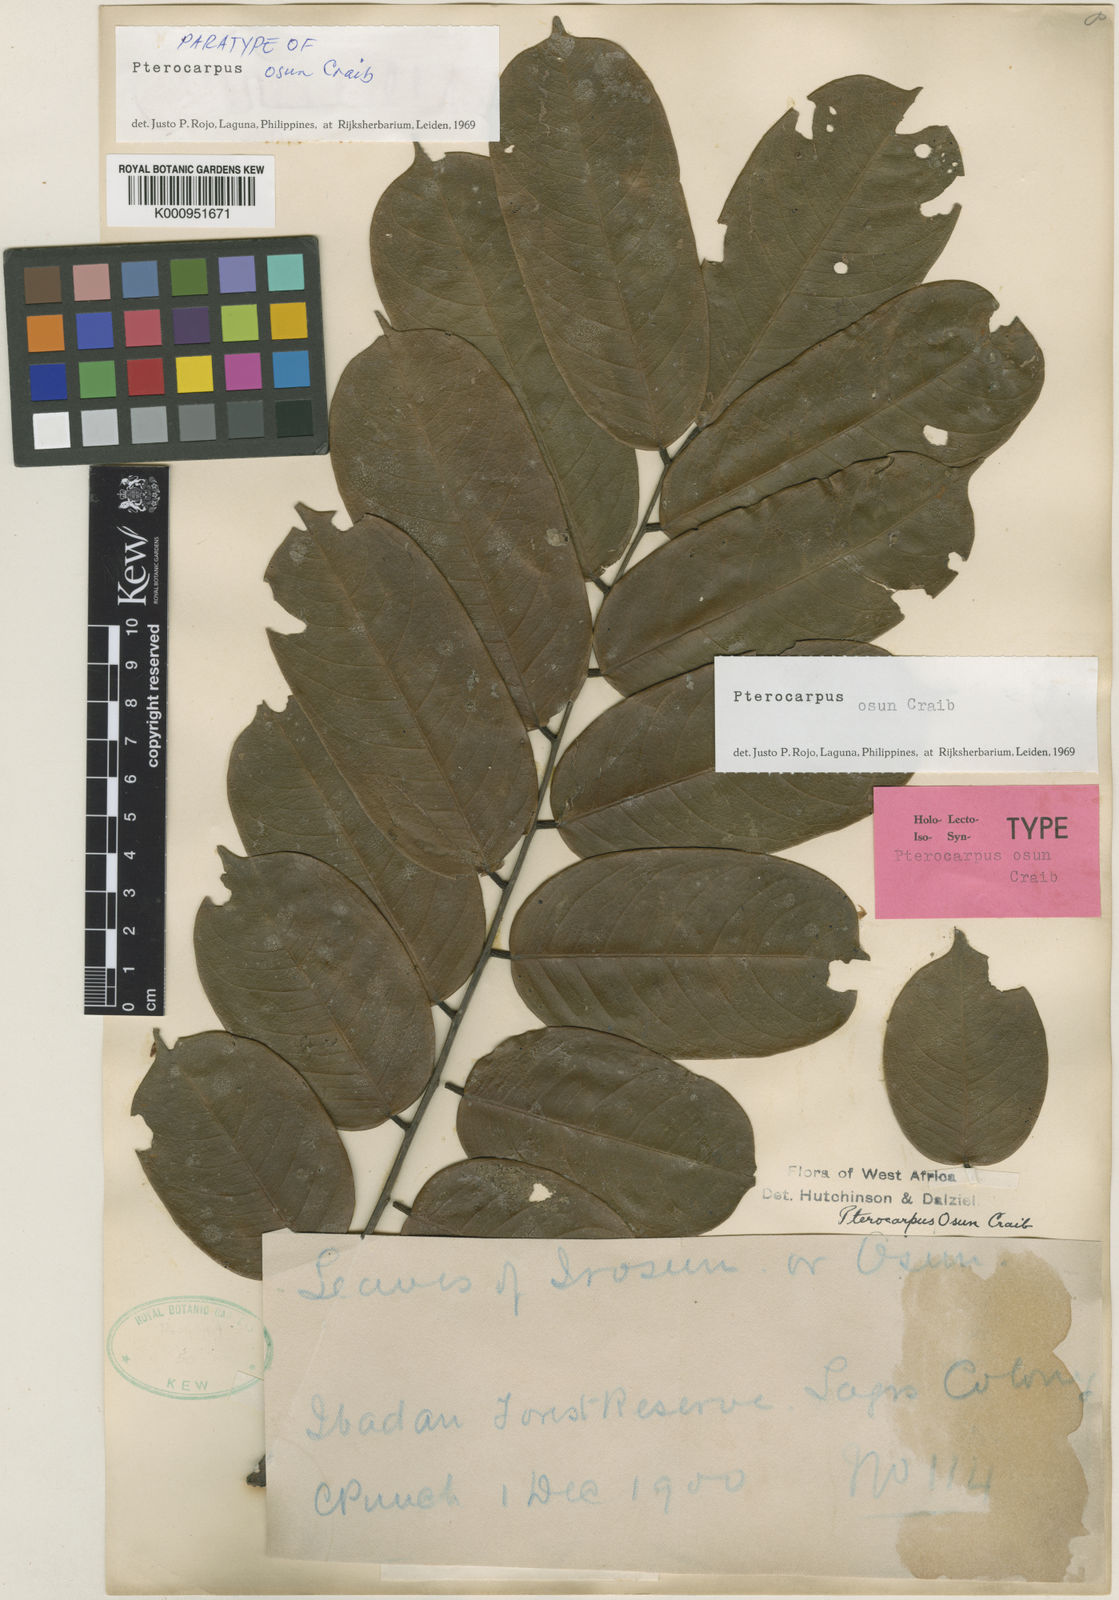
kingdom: Plantae
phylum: Tracheophyta
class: Magnoliopsida
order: Fabales
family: Fabaceae
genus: Pterocarpus
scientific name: Pterocarpus osun
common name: Camwood
